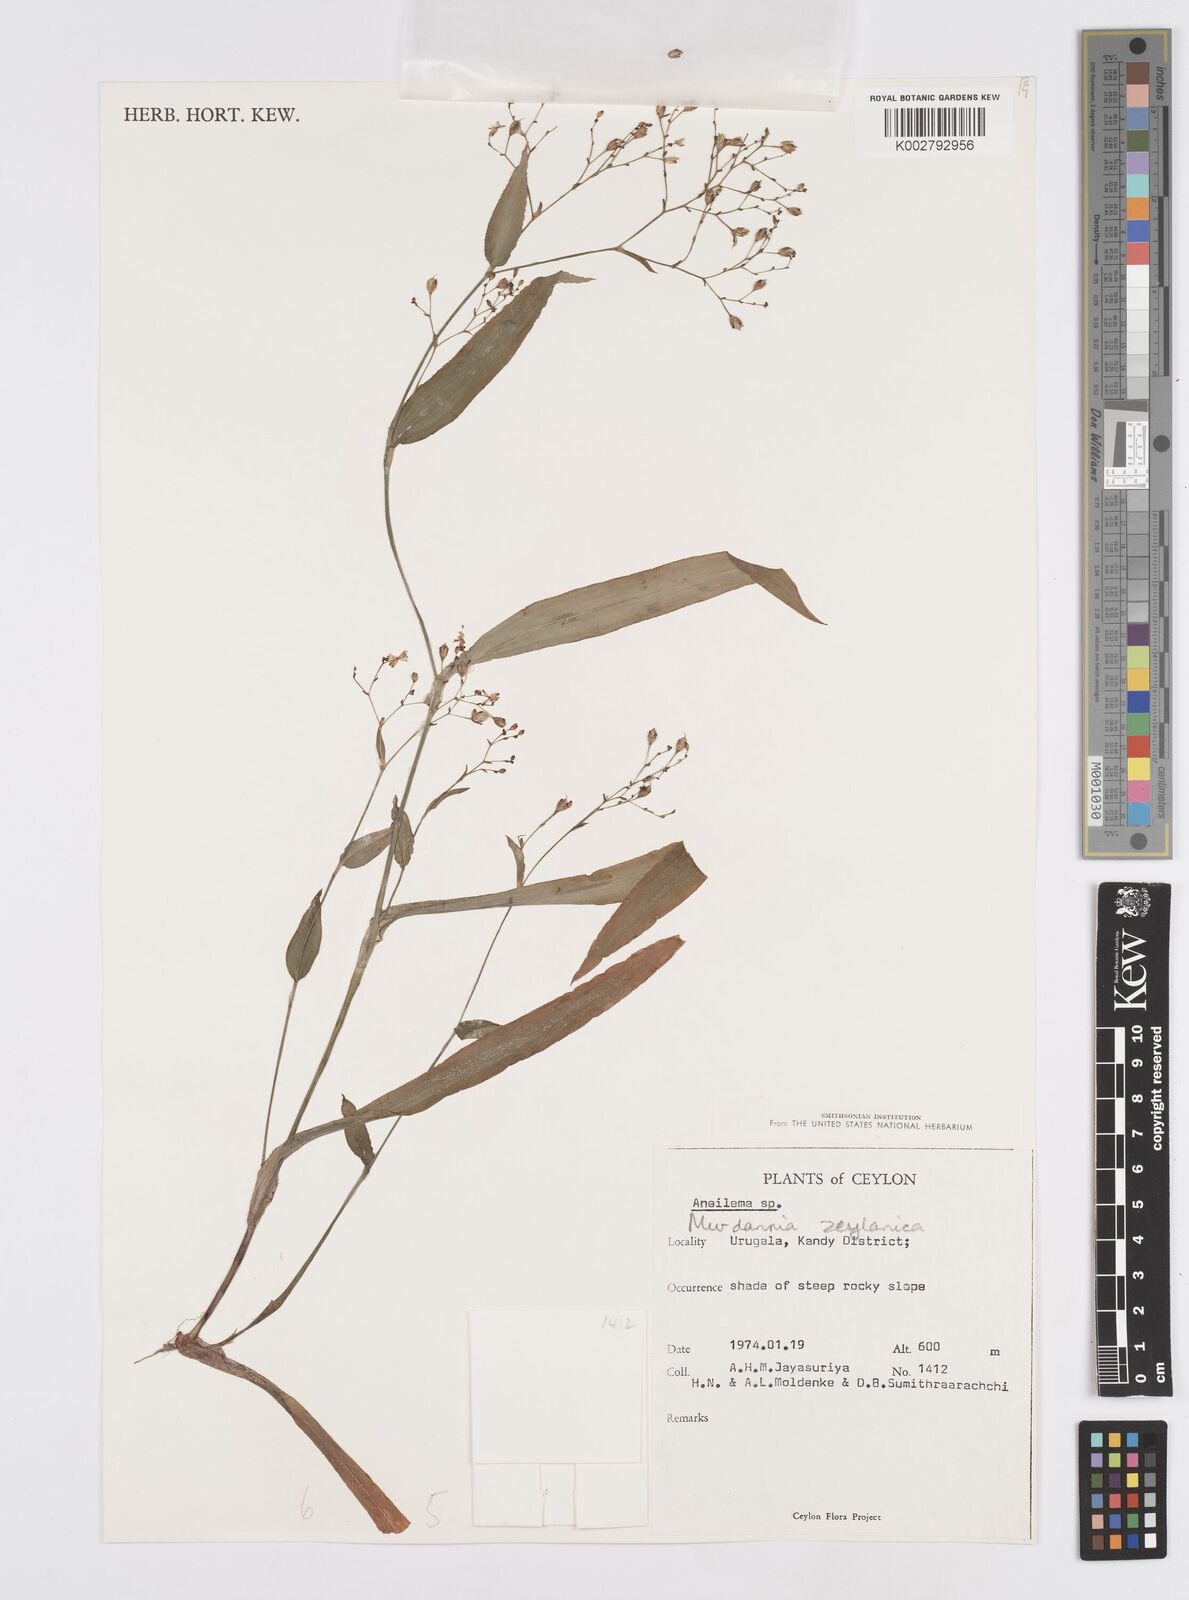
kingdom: Plantae
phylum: Tracheophyta
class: Liliopsida
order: Commelinales
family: Commelinaceae
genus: Murdannia
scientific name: Murdannia zeylanica
